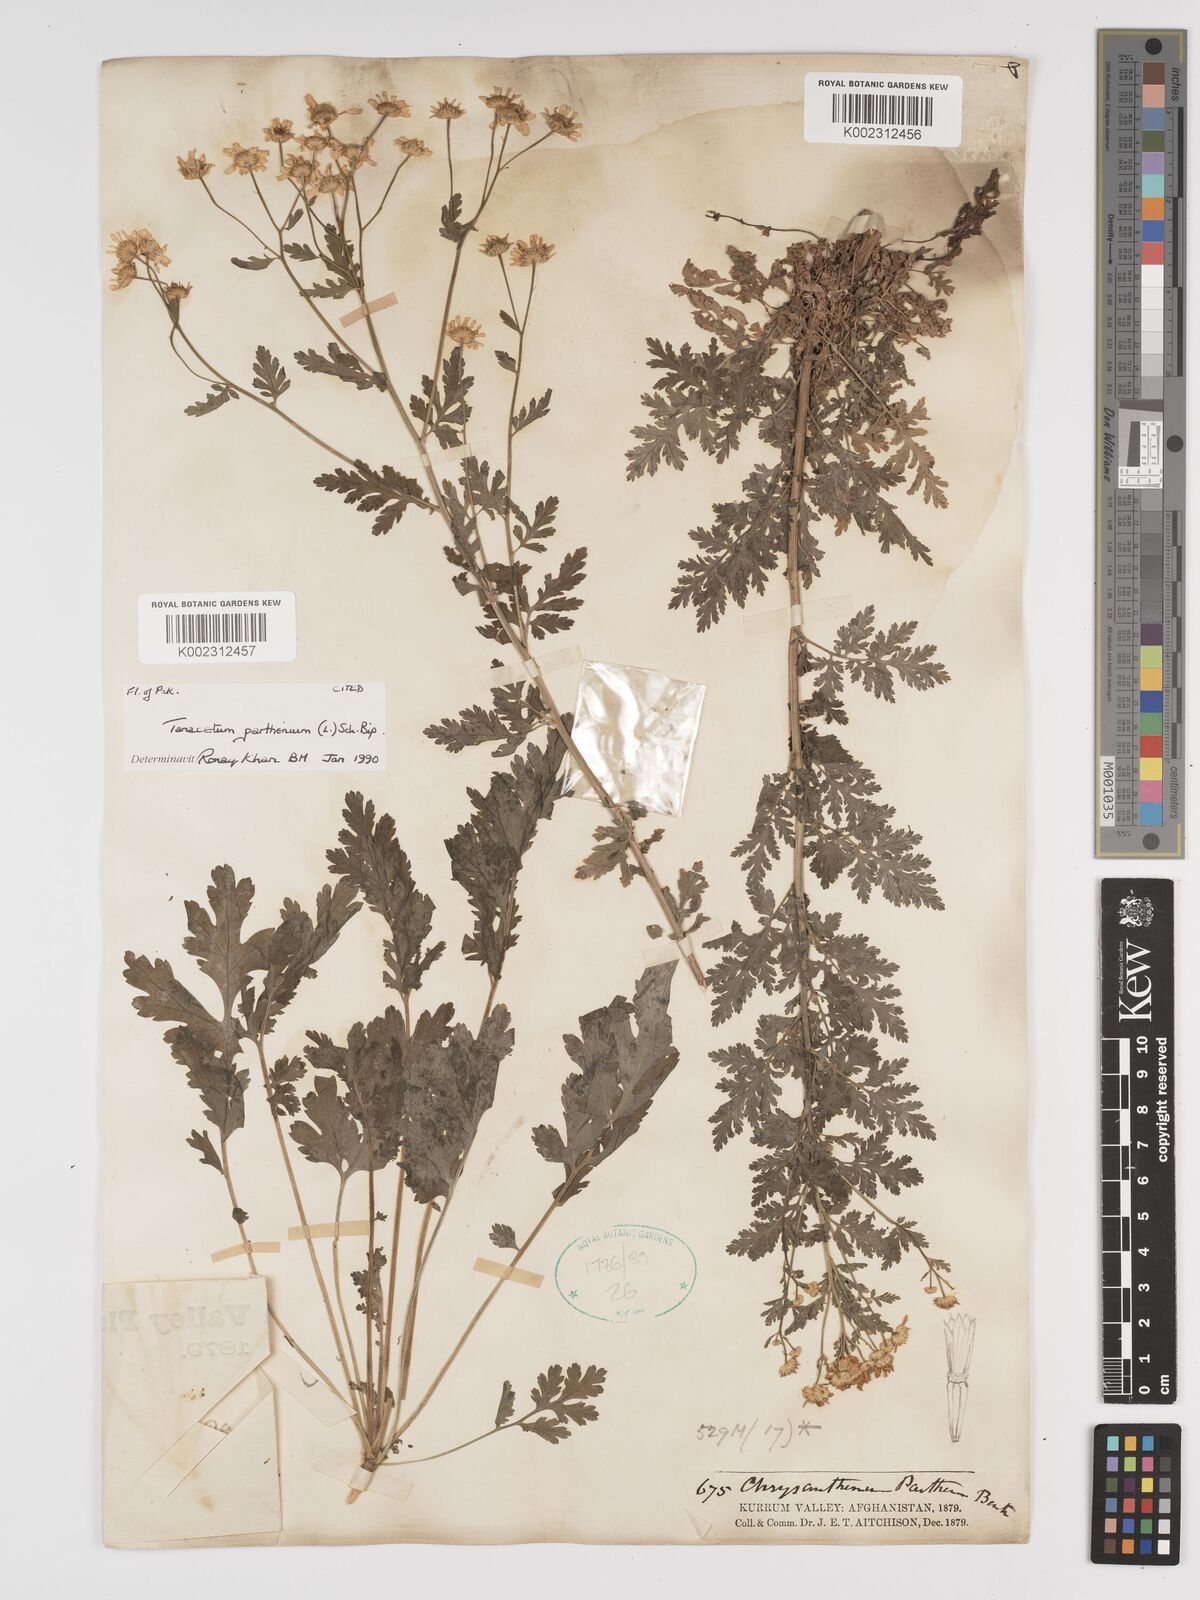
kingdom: Plantae
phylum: Tracheophyta
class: Magnoliopsida
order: Asterales
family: Asteraceae
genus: Tanacetum
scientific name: Tanacetum parthenium
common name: Feverfew
